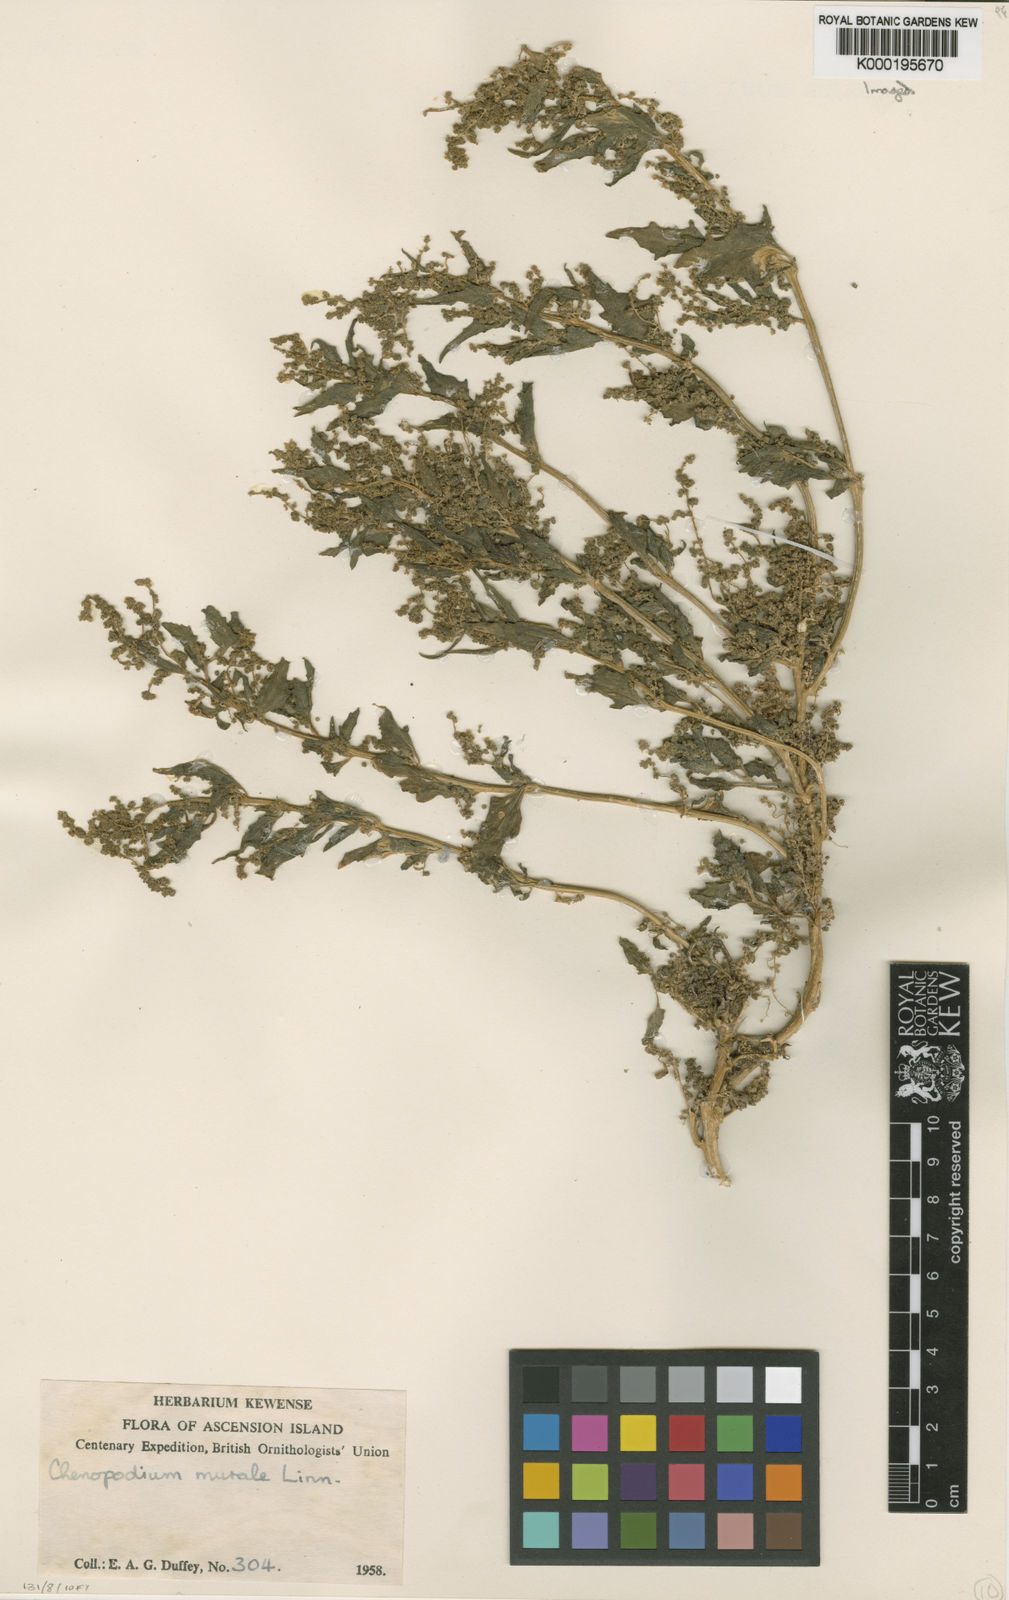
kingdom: Plantae
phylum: Tracheophyta
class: Magnoliopsida
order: Caryophyllales
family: Amaranthaceae
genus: Chenopodiastrum
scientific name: Chenopodiastrum
